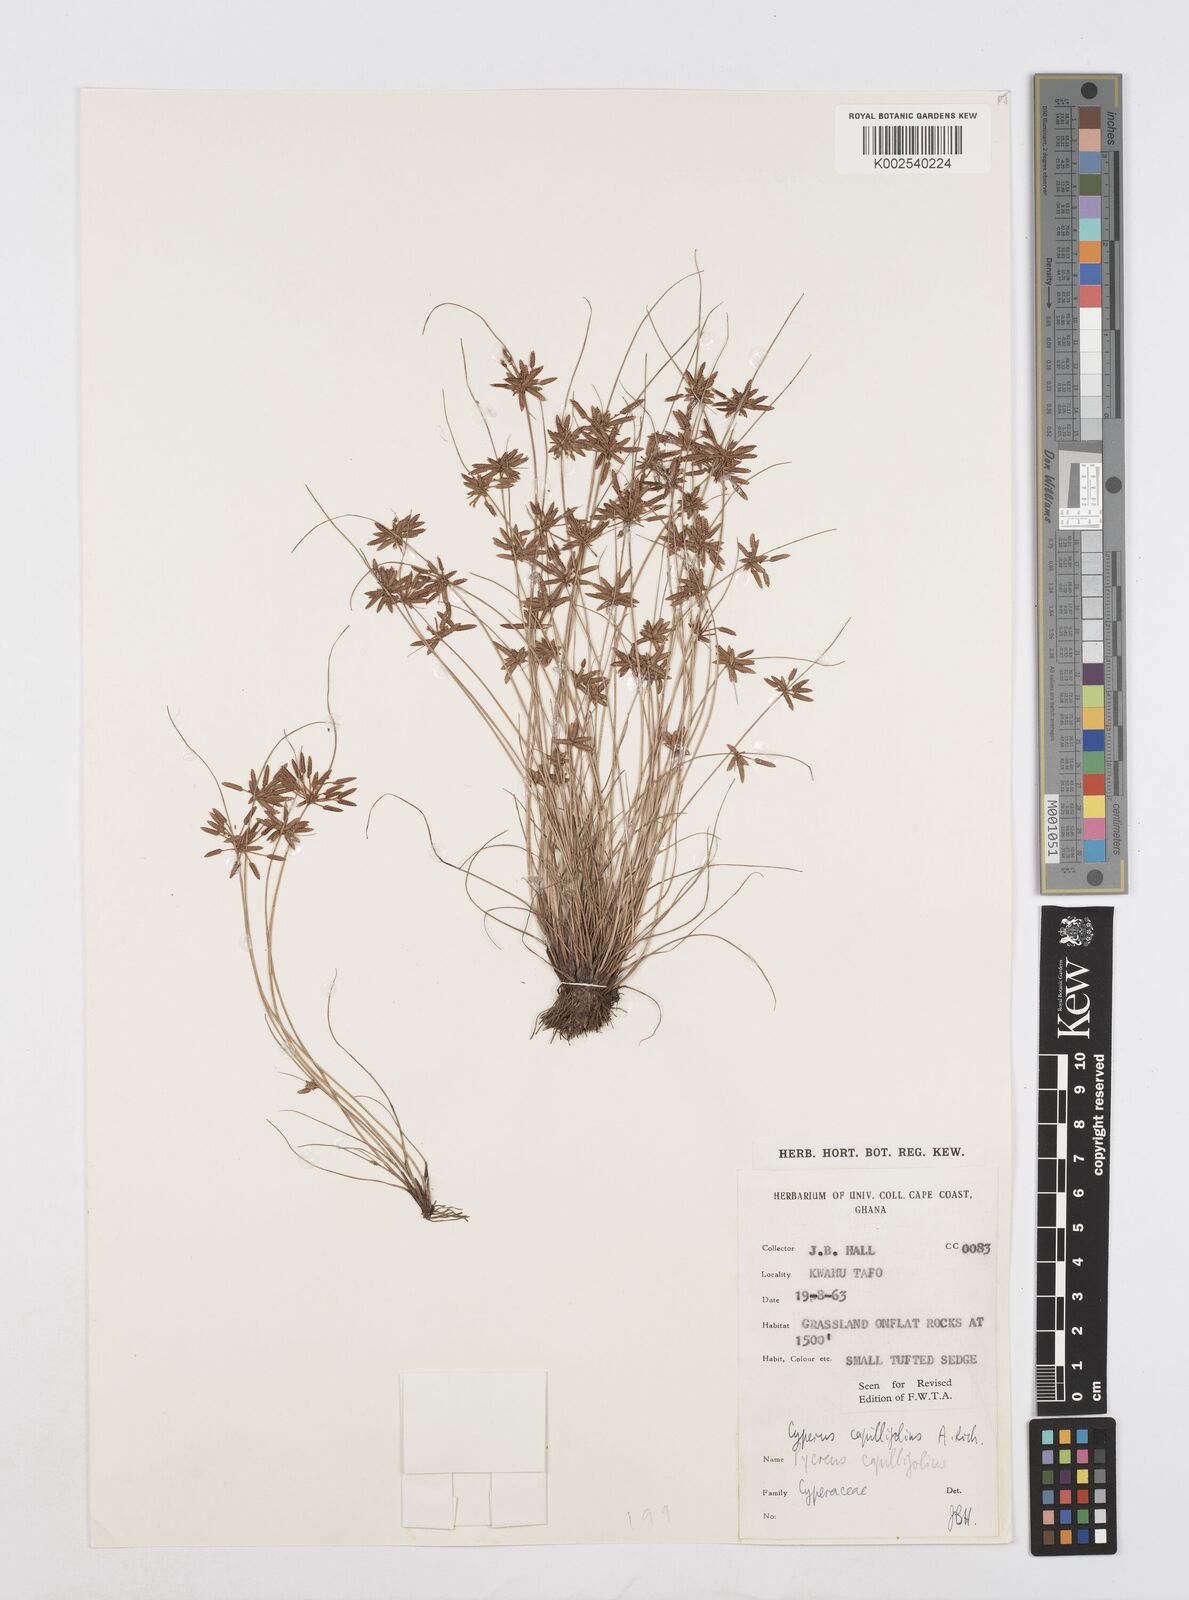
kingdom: Plantae
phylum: Tracheophyta
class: Liliopsida
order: Poales
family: Cyperaceae
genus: Cyperus
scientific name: Cyperus capillifolius
